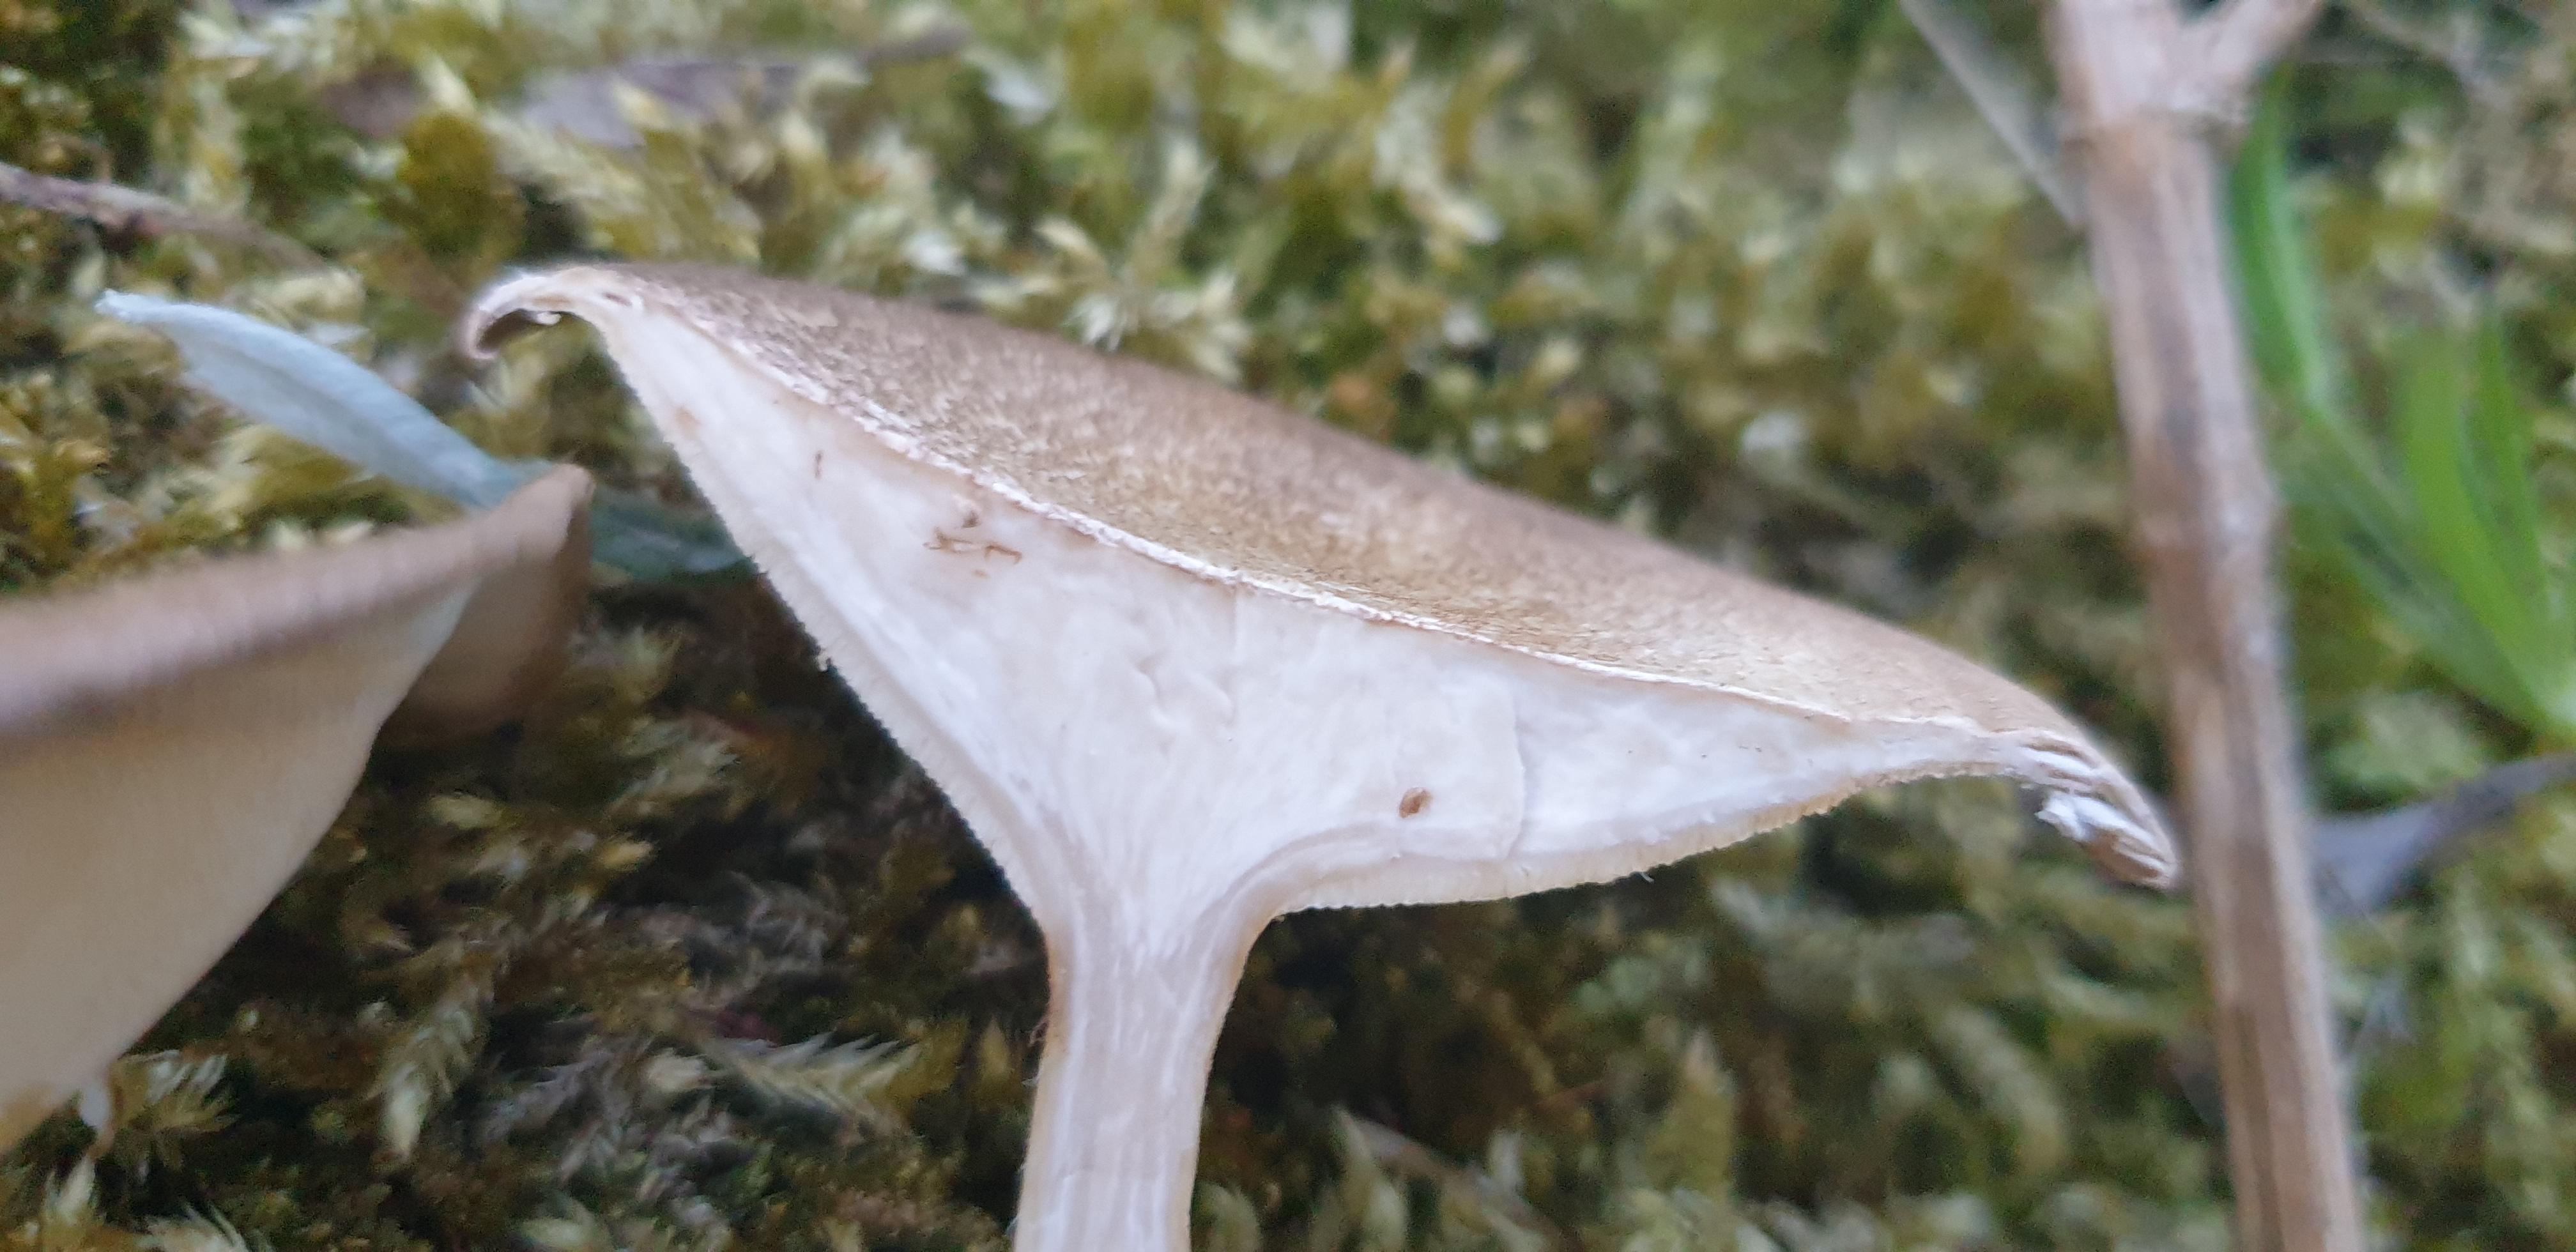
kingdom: Fungi
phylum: Basidiomycota
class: Agaricomycetes
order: Polyporales
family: Polyporaceae
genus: Lentinus
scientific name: Lentinus substrictus
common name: forårs-stilkporesvamp
